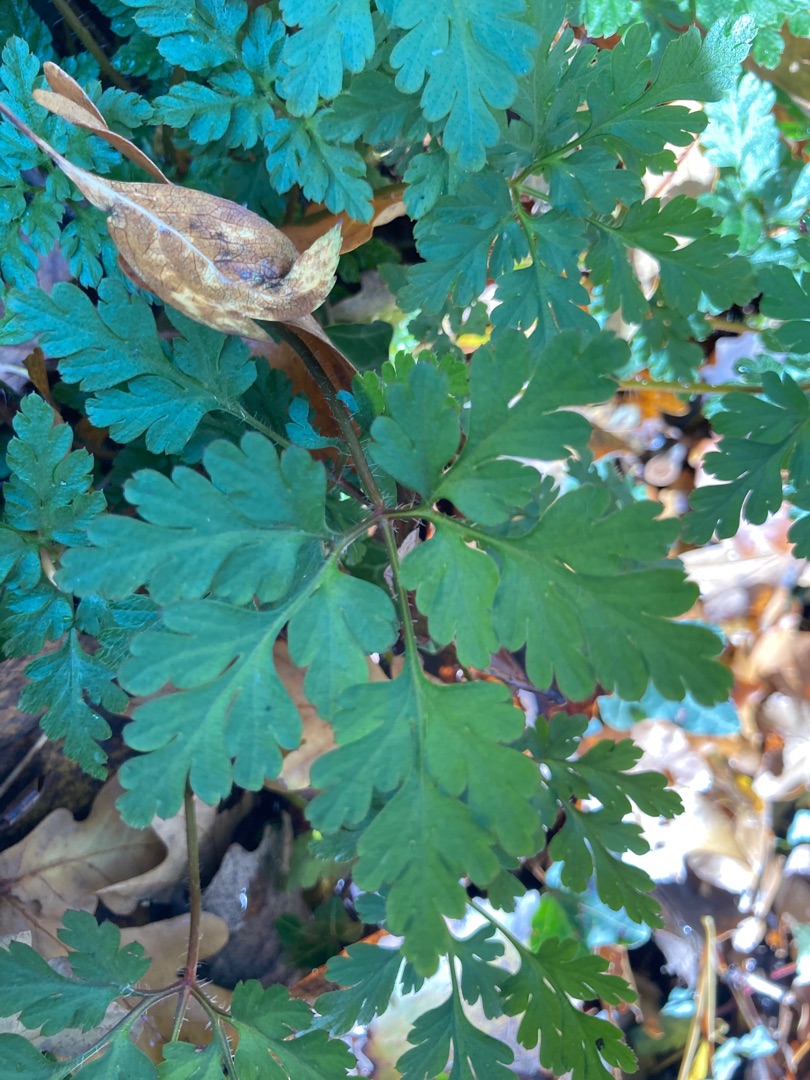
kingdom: Plantae
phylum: Tracheophyta
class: Magnoliopsida
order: Geraniales
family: Geraniaceae
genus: Geranium
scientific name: Geranium robertianum
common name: Stinkende storkenæb
